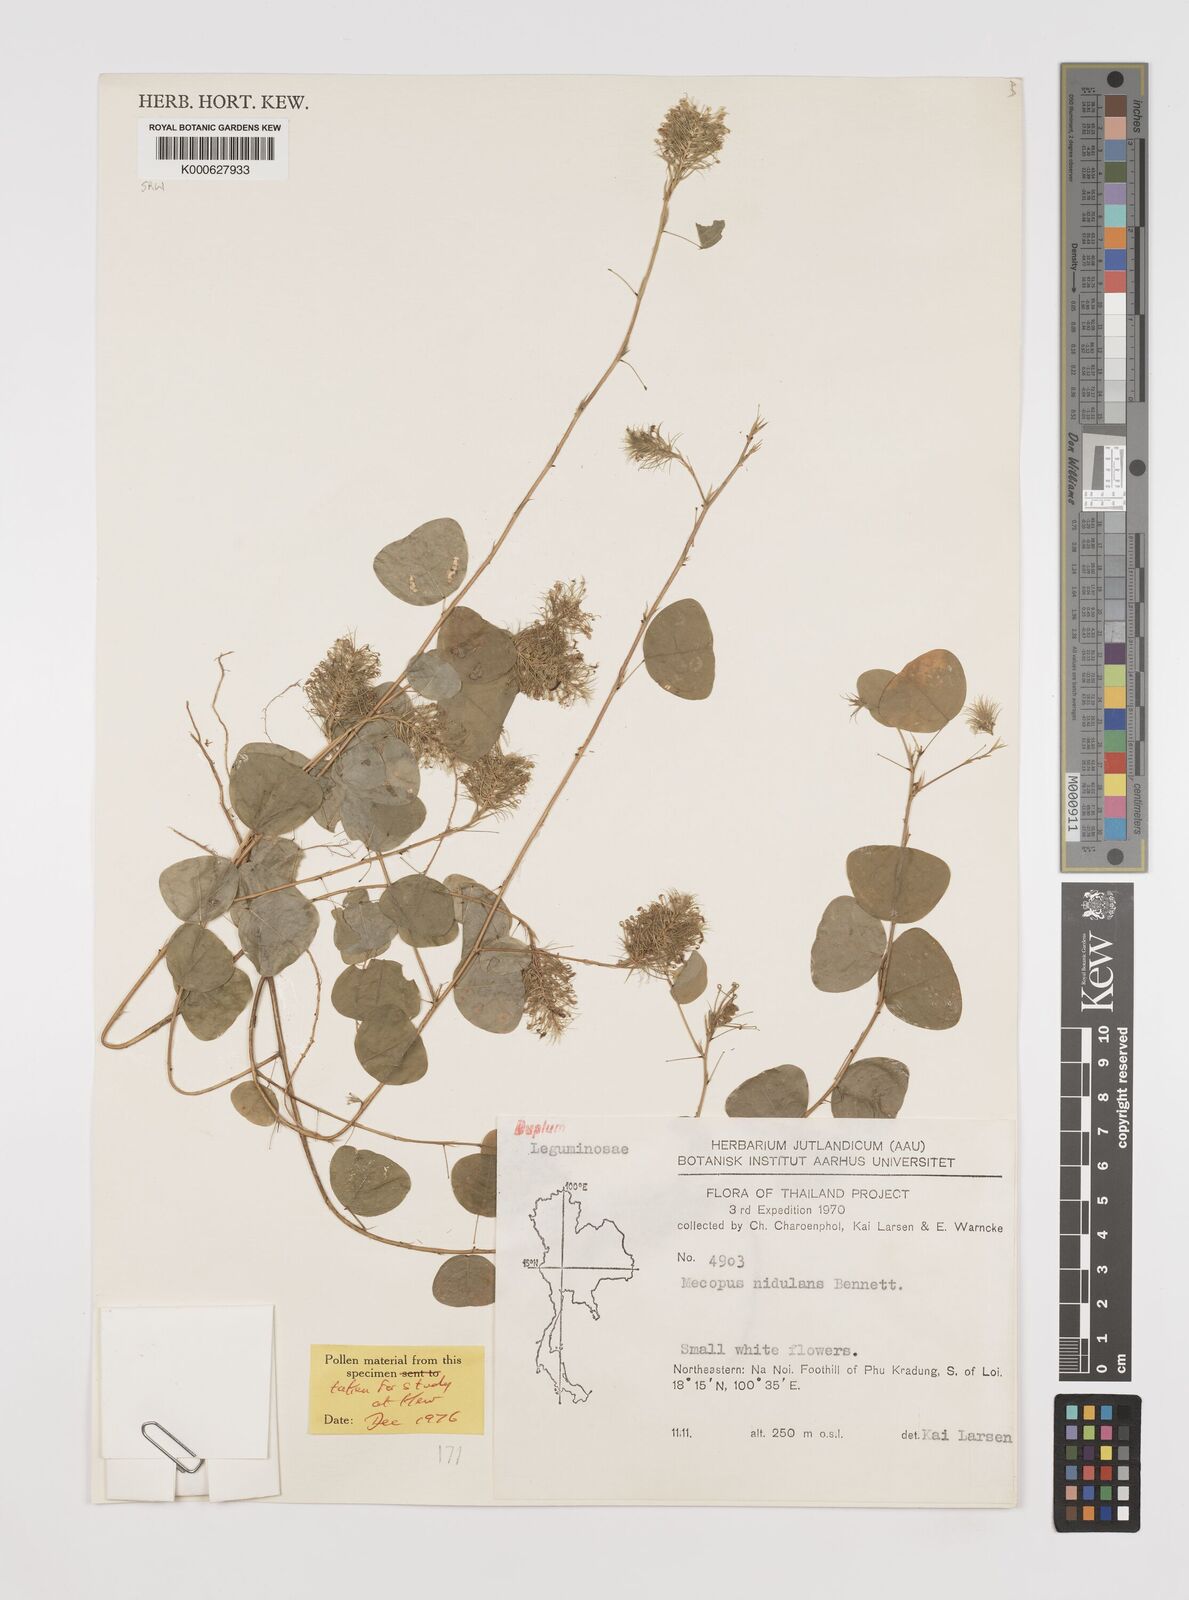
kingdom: Plantae
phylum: Tracheophyta
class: Magnoliopsida
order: Fabales
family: Fabaceae
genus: Mecopus
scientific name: Mecopus nidulans
